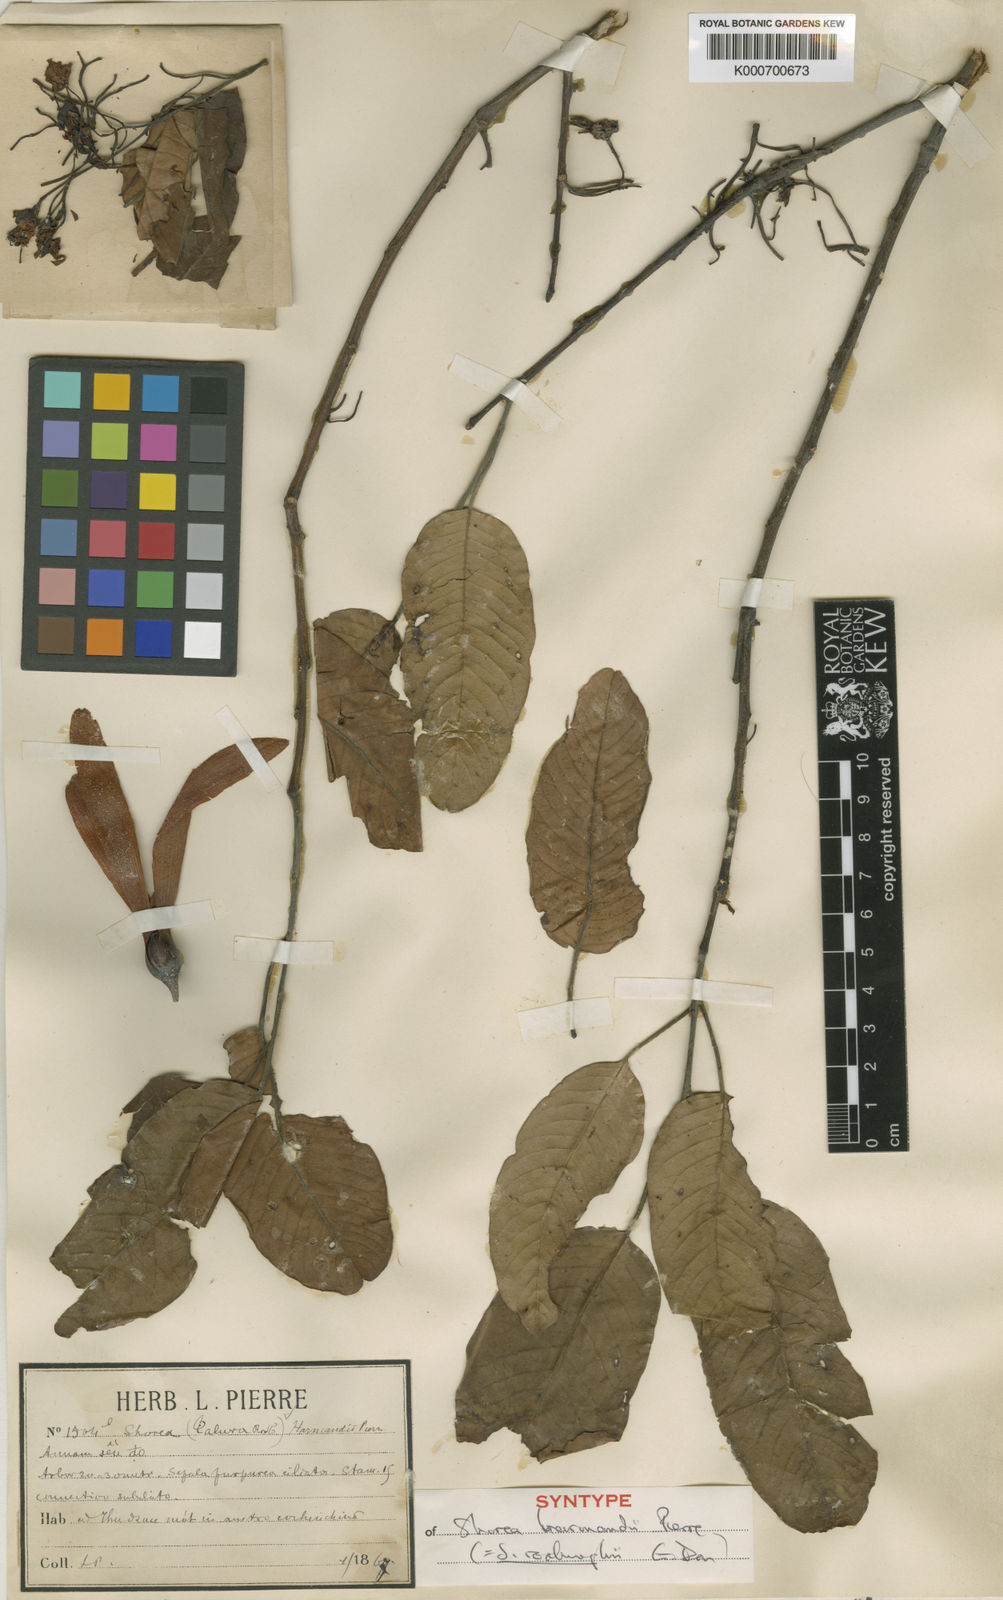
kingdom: Plantae
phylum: Tracheophyta
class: Magnoliopsida
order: Malvales
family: Dipterocarpaceae
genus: Anthoshorea
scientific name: Anthoshorea roxburghii
